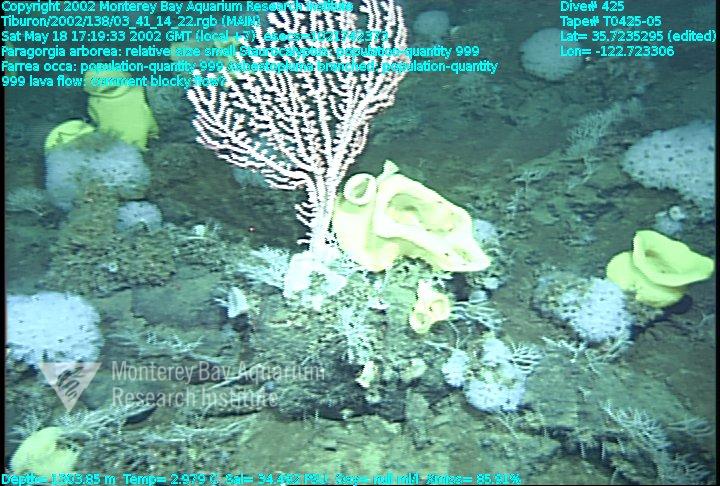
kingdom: Animalia
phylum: Porifera
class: Demospongiae
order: Poecilosclerida
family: Cladorhizidae
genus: Asbestopluma
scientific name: Asbestopluma monticola
